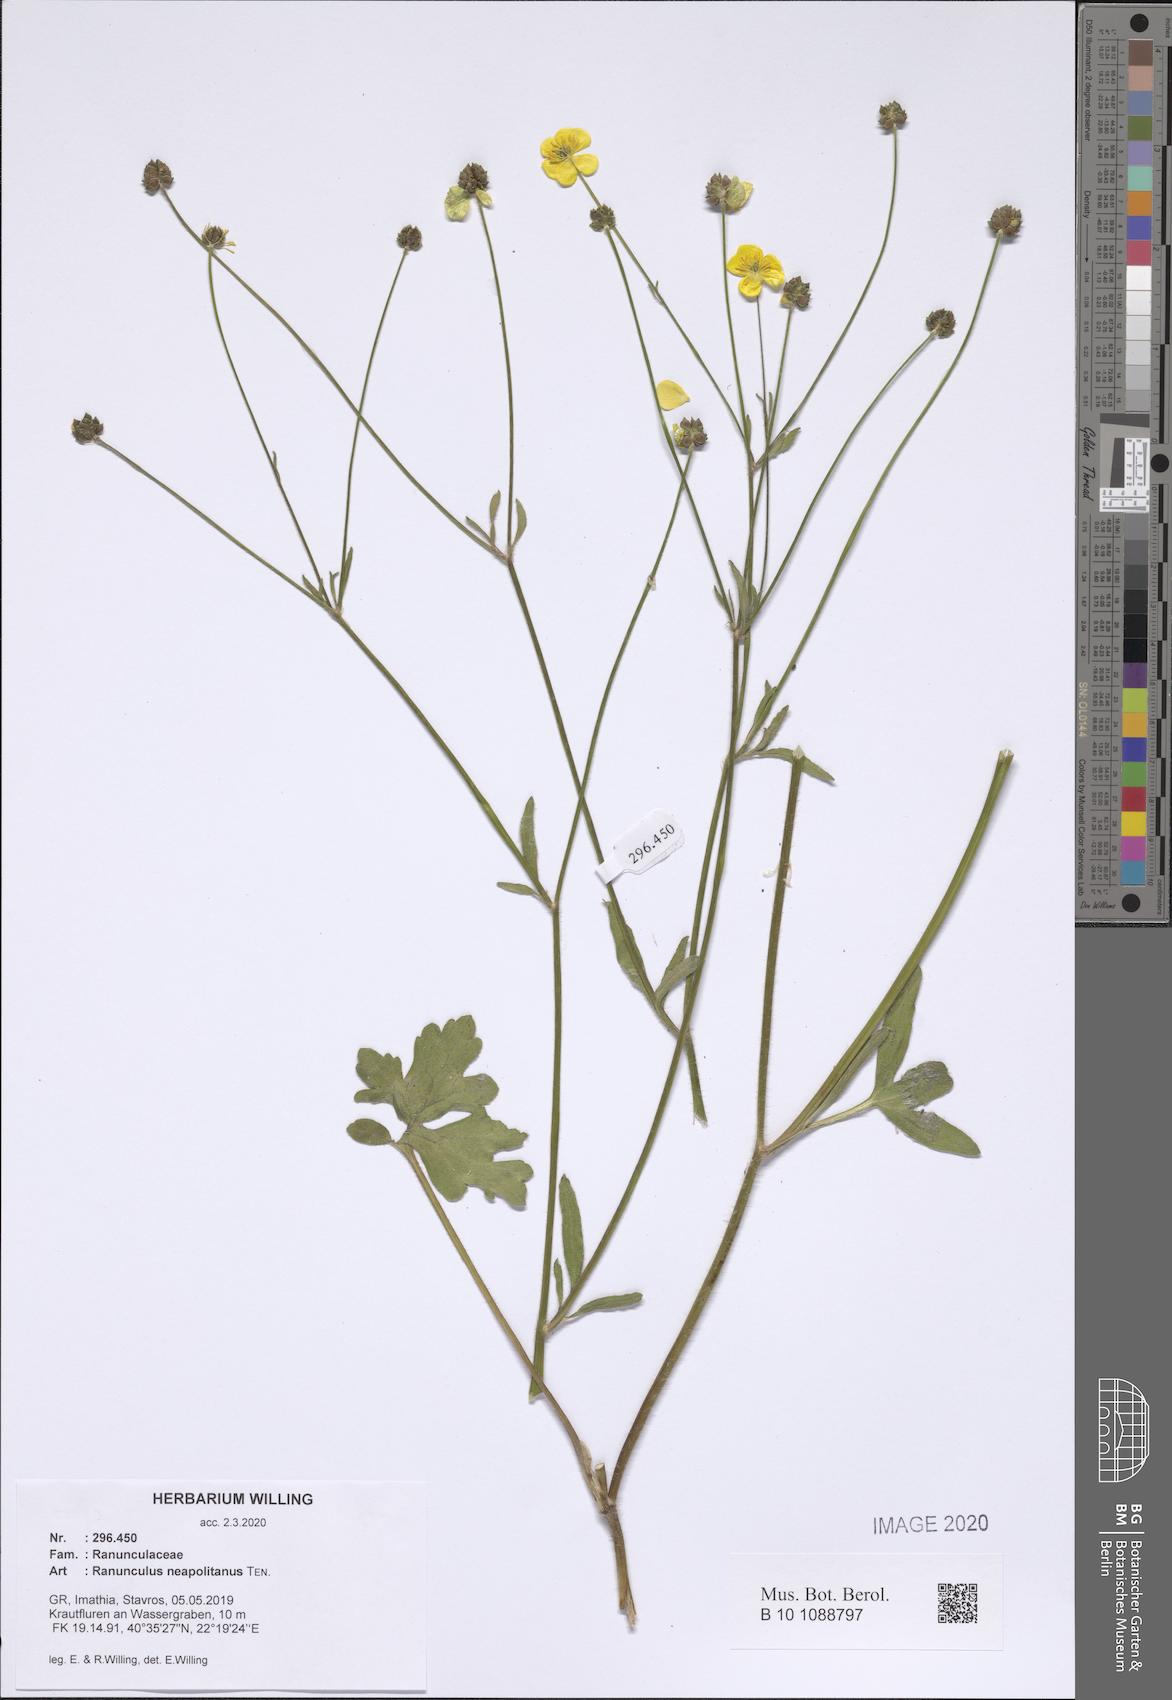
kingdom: Plantae
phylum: Tracheophyta
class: Magnoliopsida
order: Ranunculales
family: Ranunculaceae
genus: Ranunculus
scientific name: Ranunculus neapolitanus
